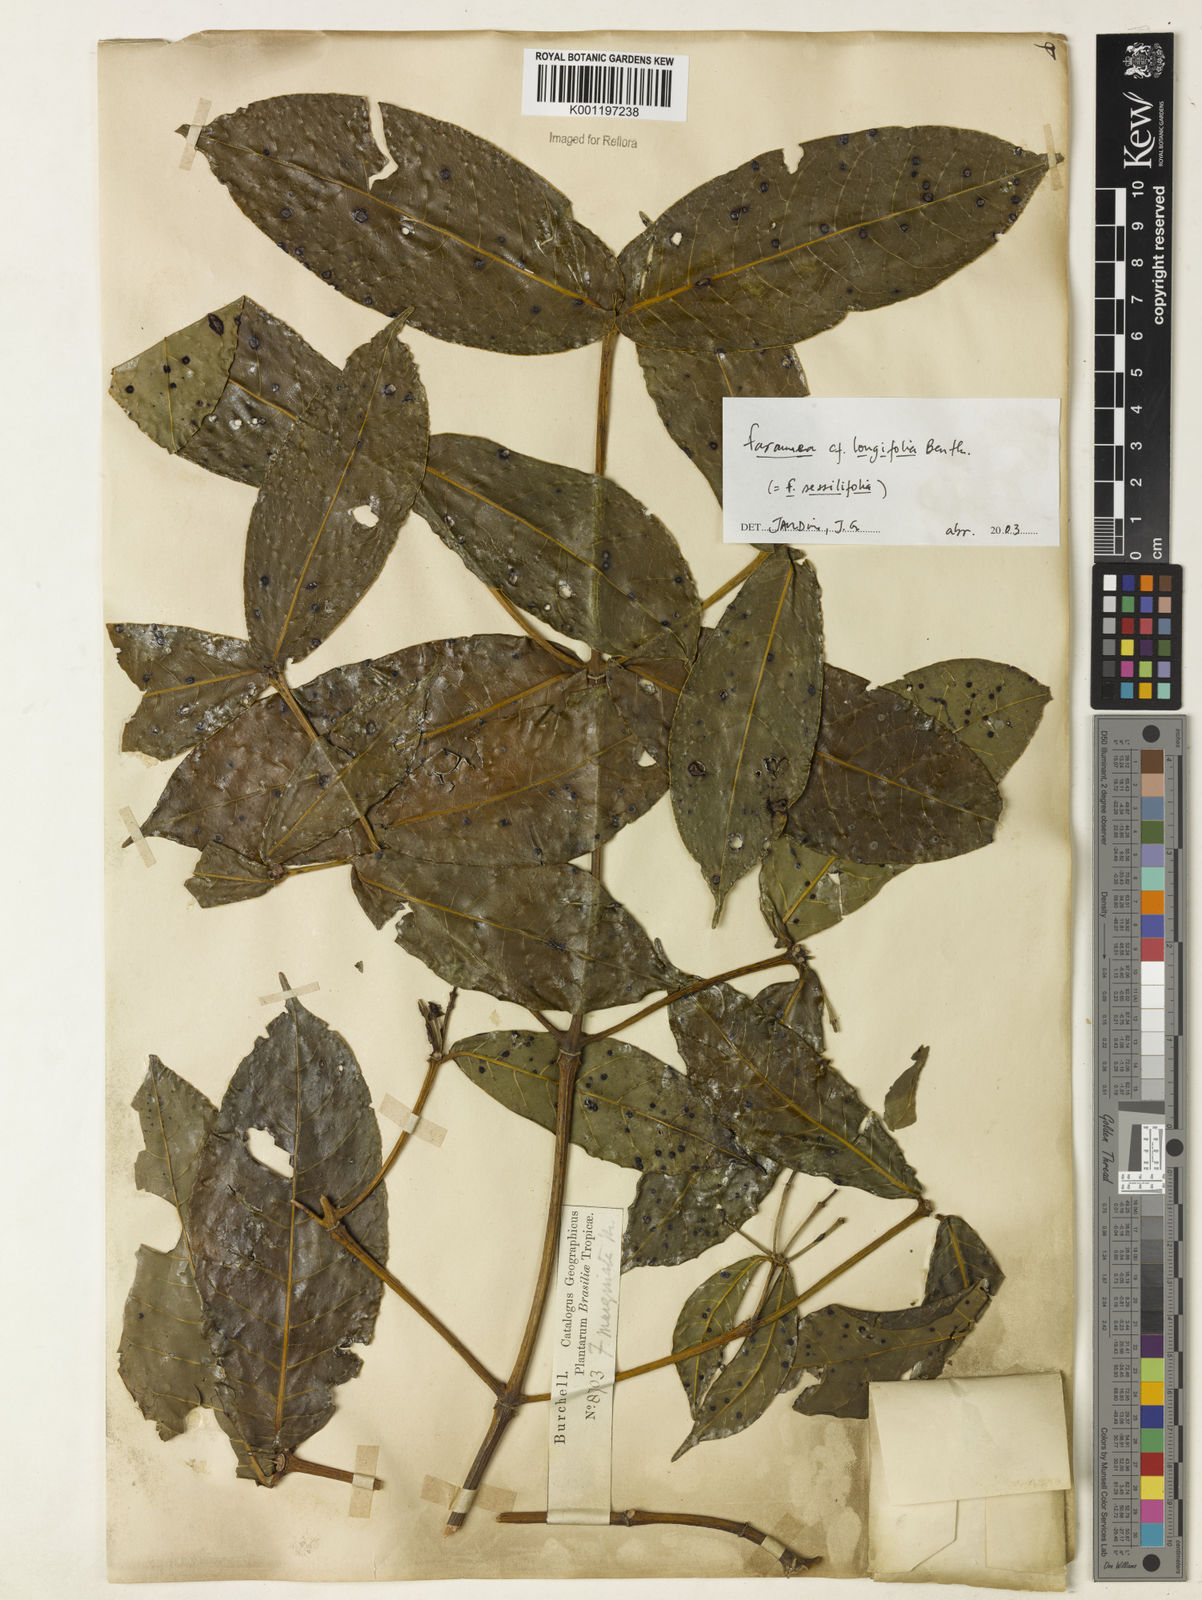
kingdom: Plantae
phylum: Tracheophyta
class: Magnoliopsida
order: Gentianales
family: Rubiaceae
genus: Faramea
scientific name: Faramea sessilifolia
